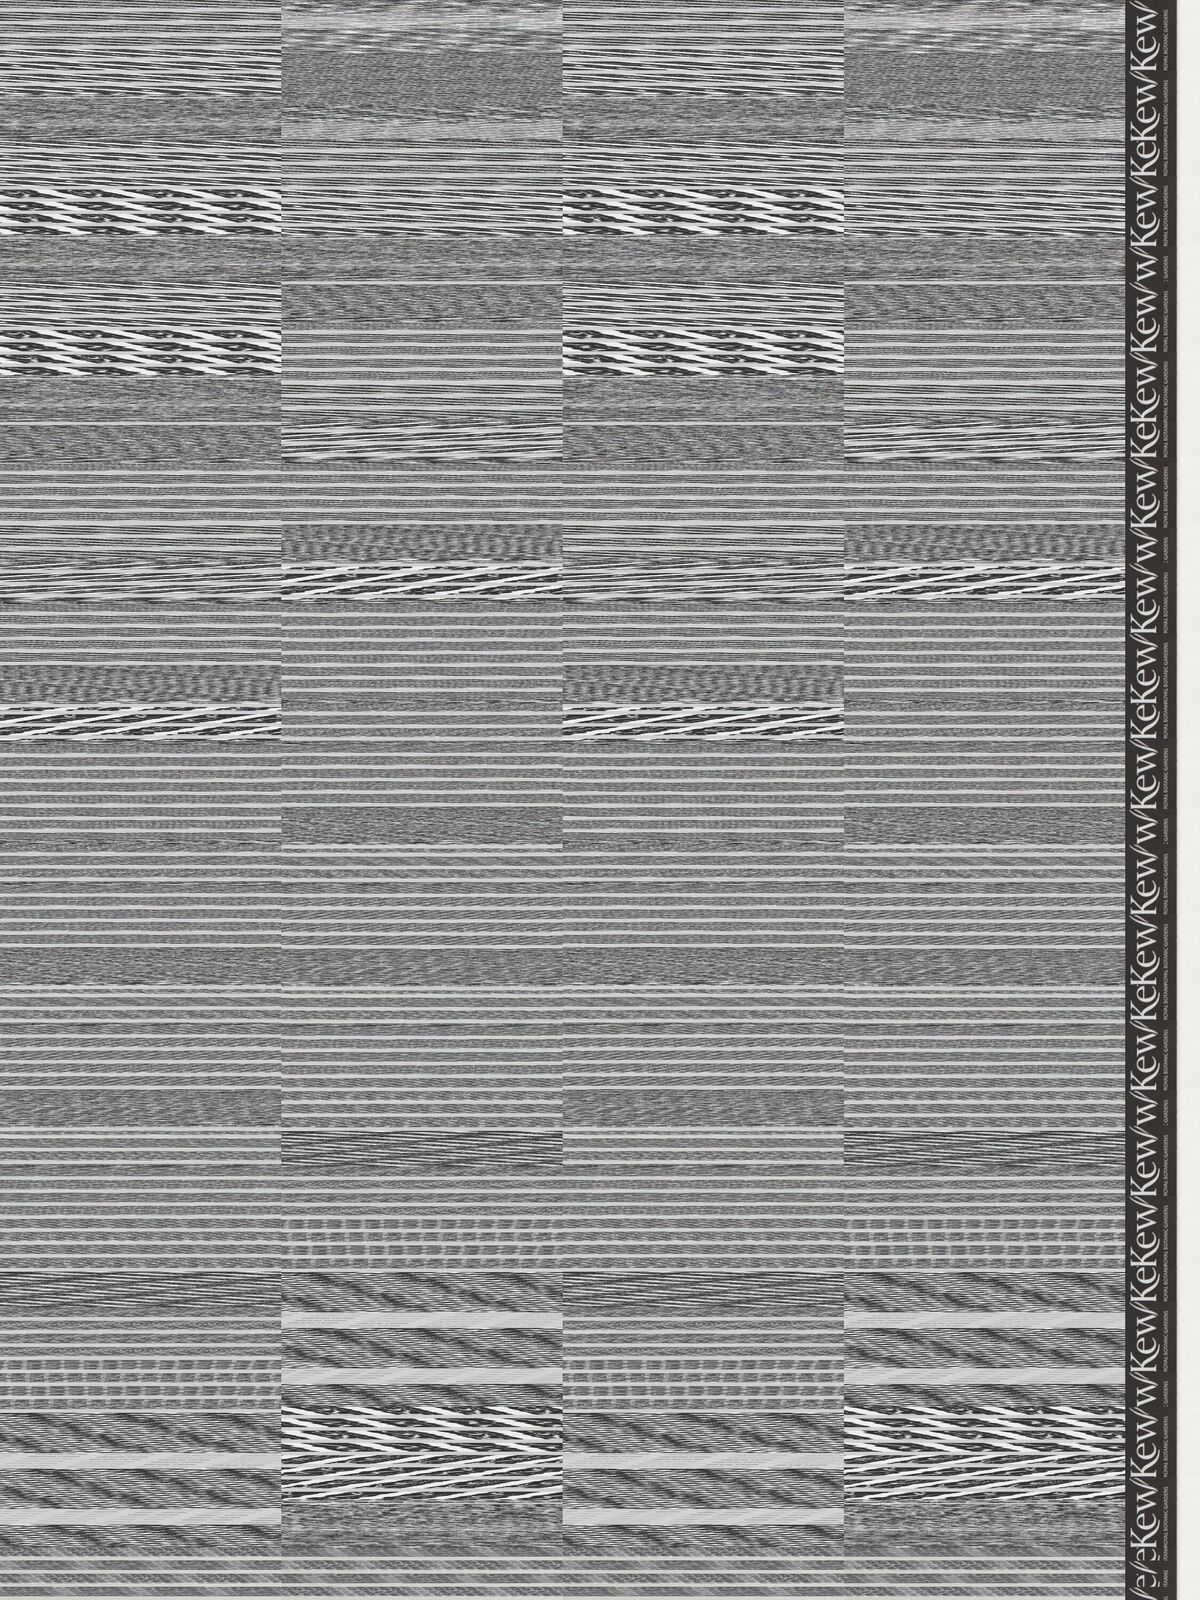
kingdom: Plantae
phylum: Tracheophyta
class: Magnoliopsida
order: Asterales
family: Asteraceae
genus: Acourtia
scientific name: Acourtia turbinata
